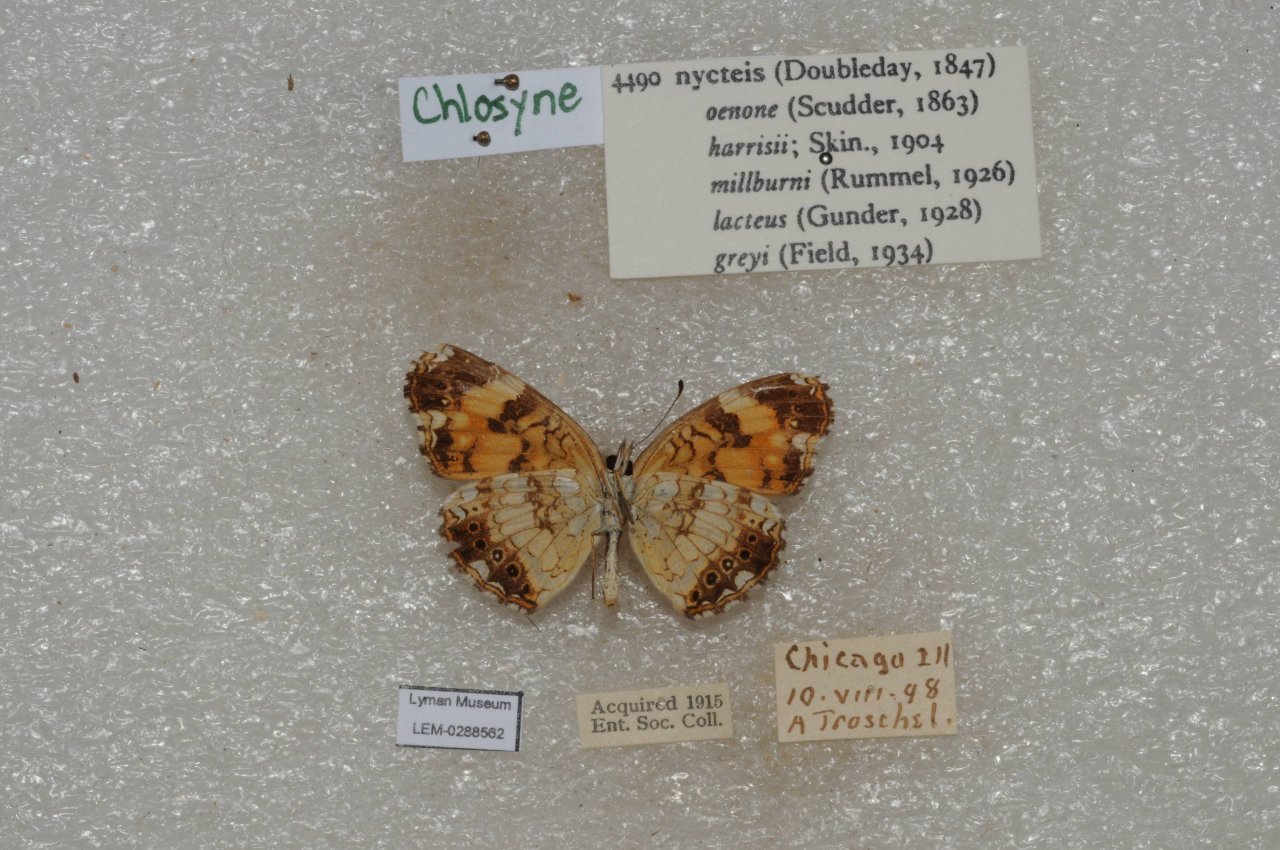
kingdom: Animalia
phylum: Arthropoda
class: Insecta
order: Lepidoptera
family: Nymphalidae
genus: Chlosyne
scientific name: Chlosyne nycteis
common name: Silvery Checkerspot
